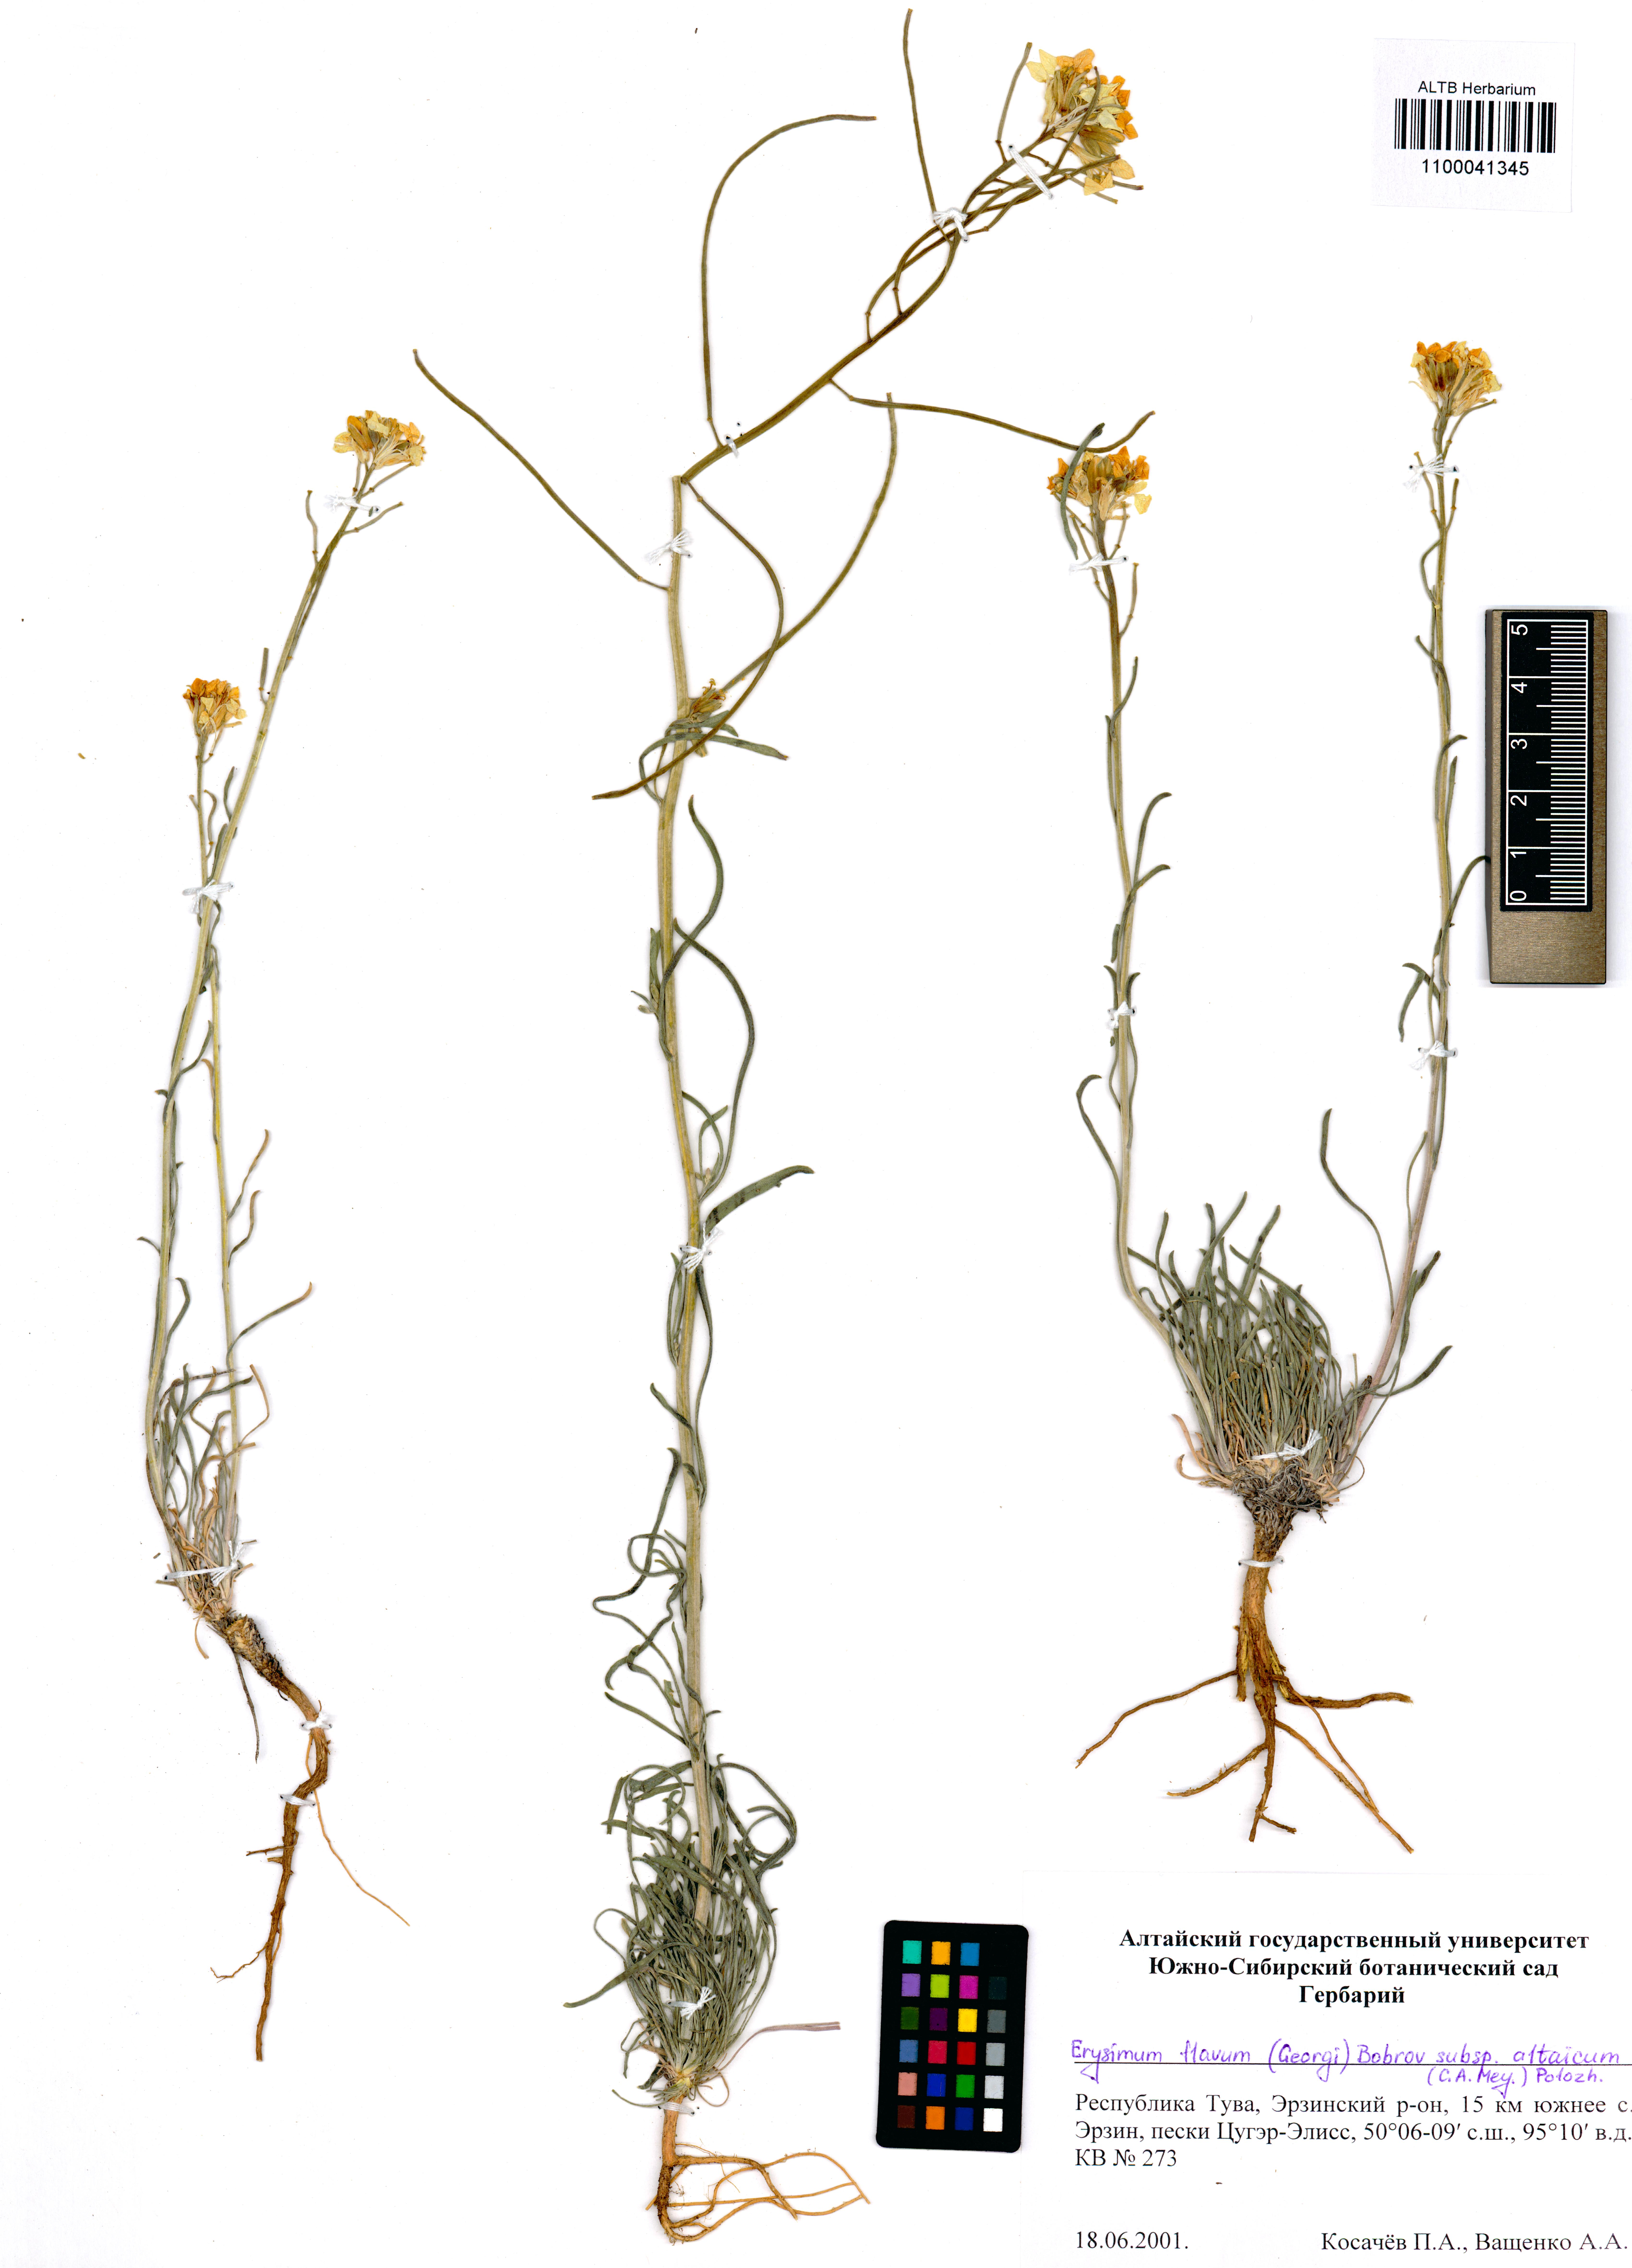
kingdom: Plantae
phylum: Tracheophyta
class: Magnoliopsida
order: Brassicales
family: Brassicaceae
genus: Erysimum
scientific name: Erysimum flavum
